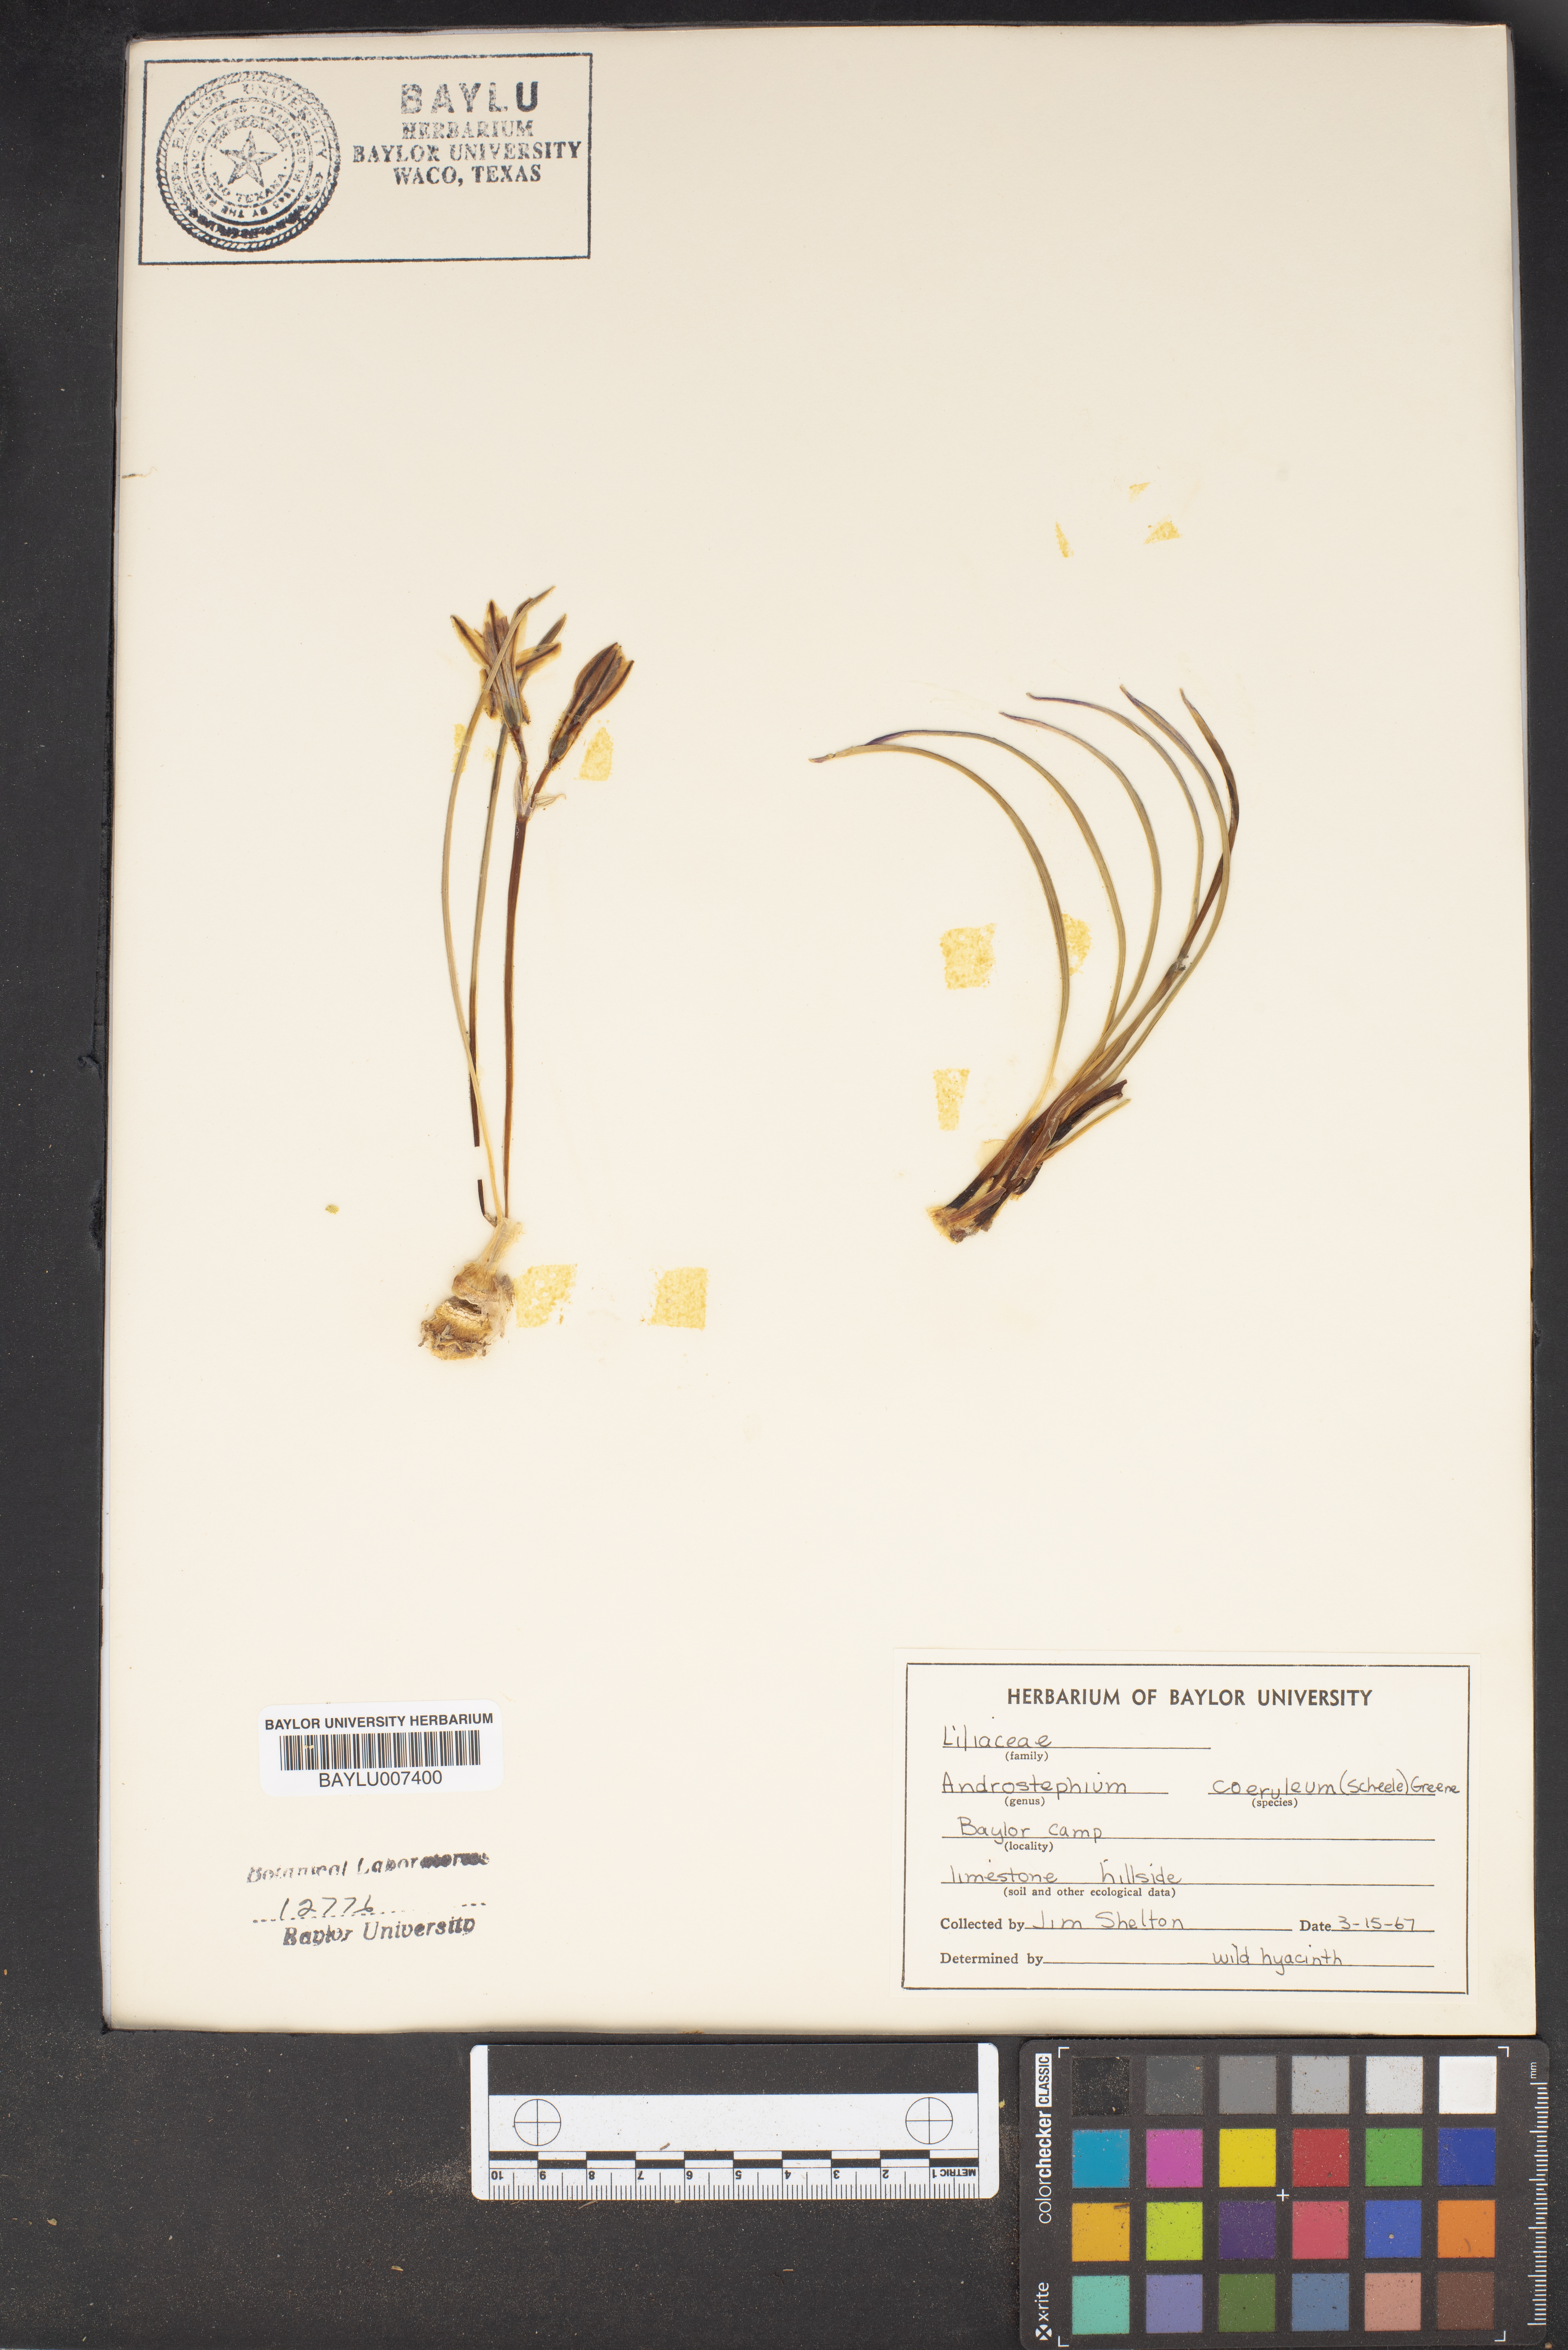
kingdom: Plantae
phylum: Tracheophyta
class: Liliopsida
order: Asparagales
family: Asparagaceae
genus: Androstephium
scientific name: Androstephium coeruleum
